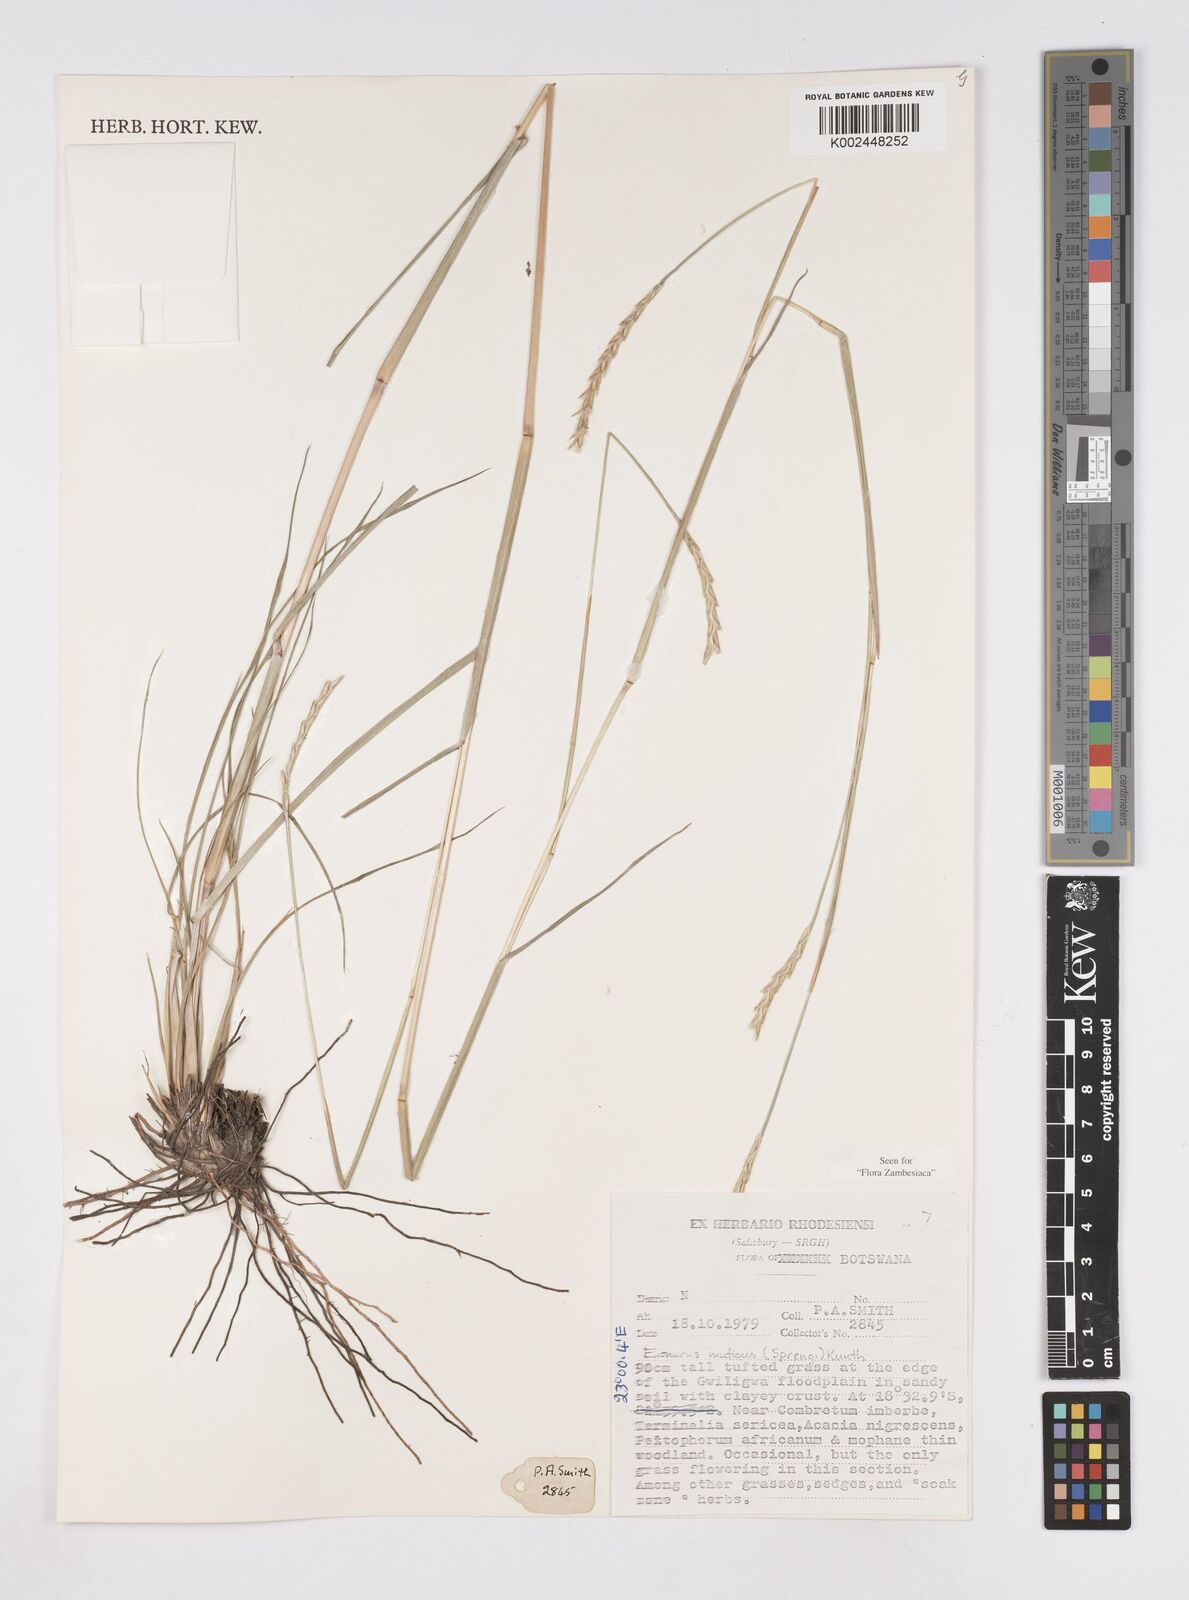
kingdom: Plantae
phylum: Tracheophyta
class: Liliopsida
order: Poales
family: Poaceae
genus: Elionurus
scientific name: Elionurus muticus
